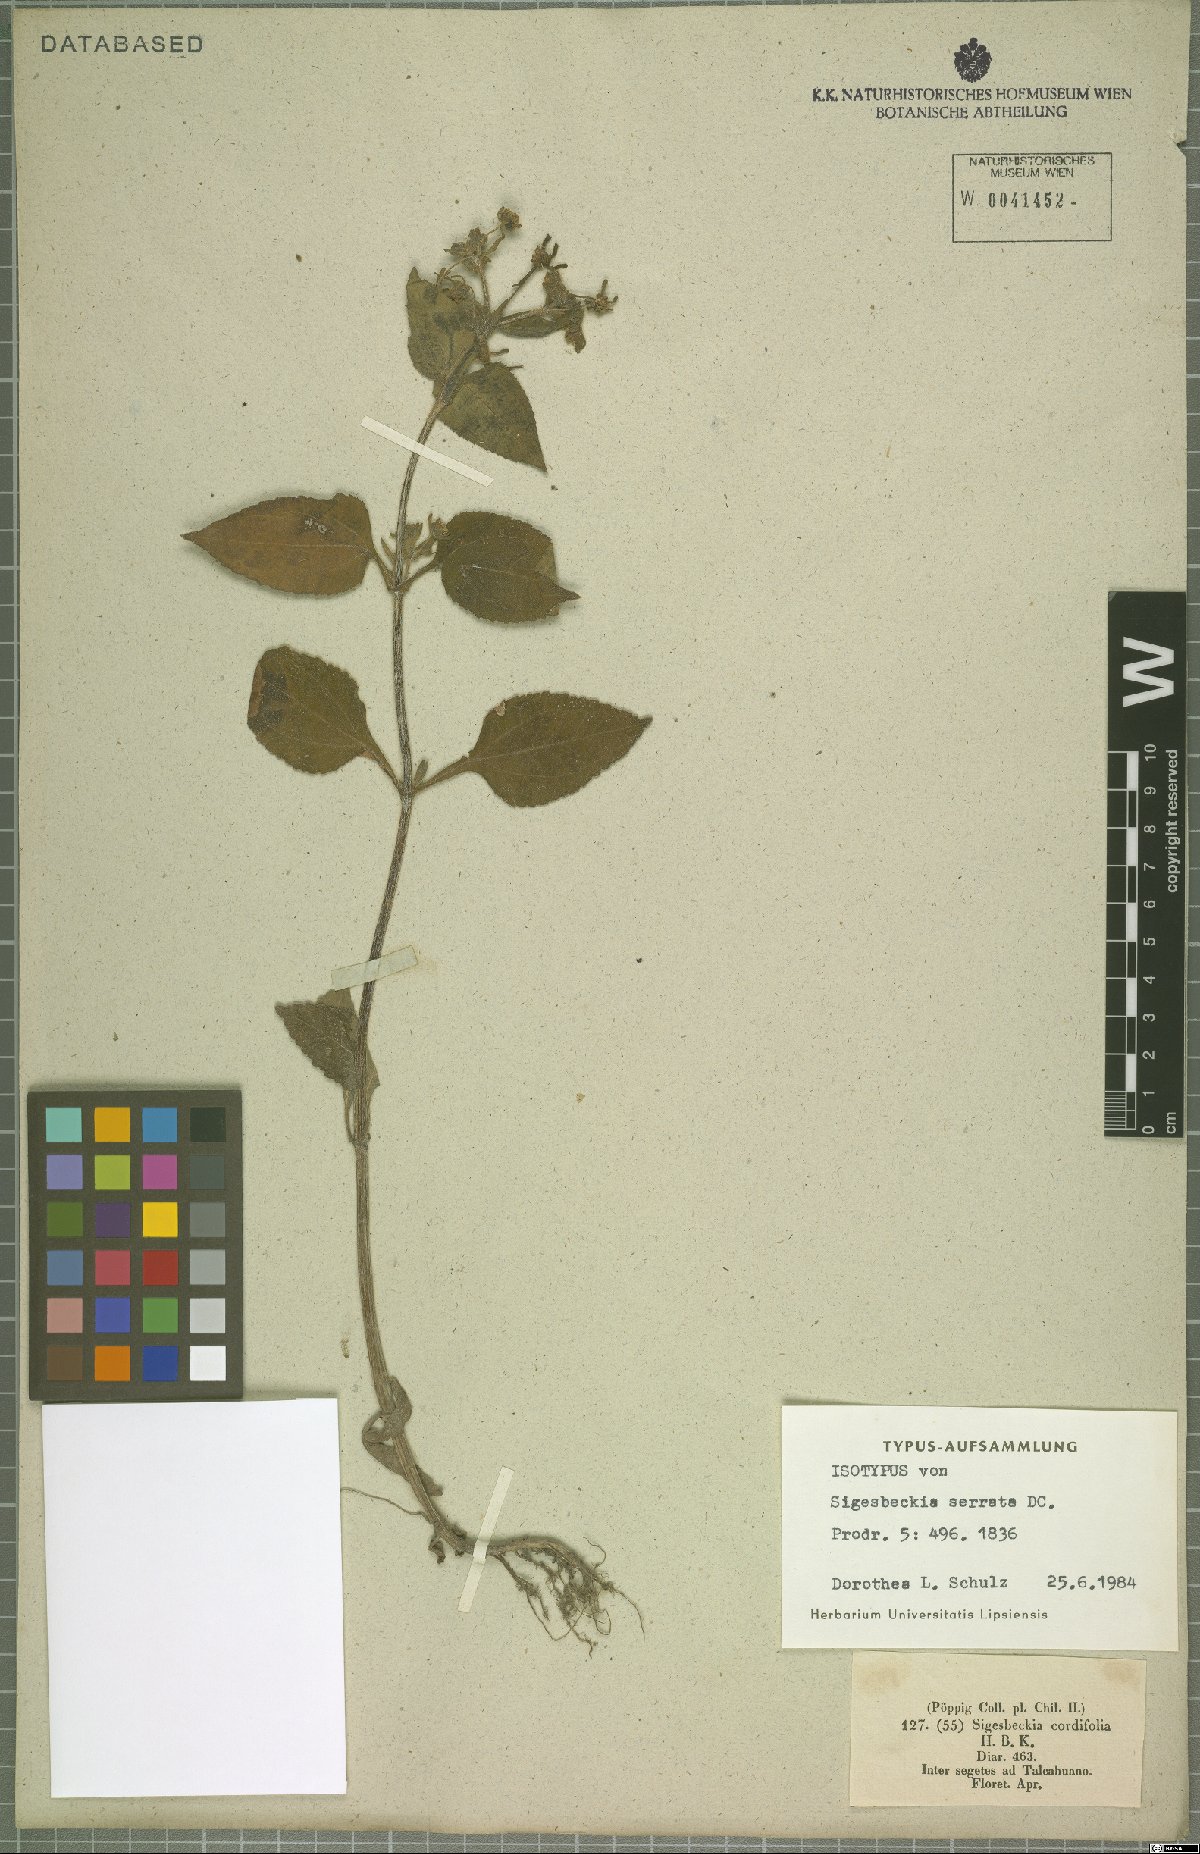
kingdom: Plantae
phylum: Tracheophyta
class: Magnoliopsida
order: Asterales
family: Asteraceae
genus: Sigesbeckia
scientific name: Sigesbeckia jorullensis
